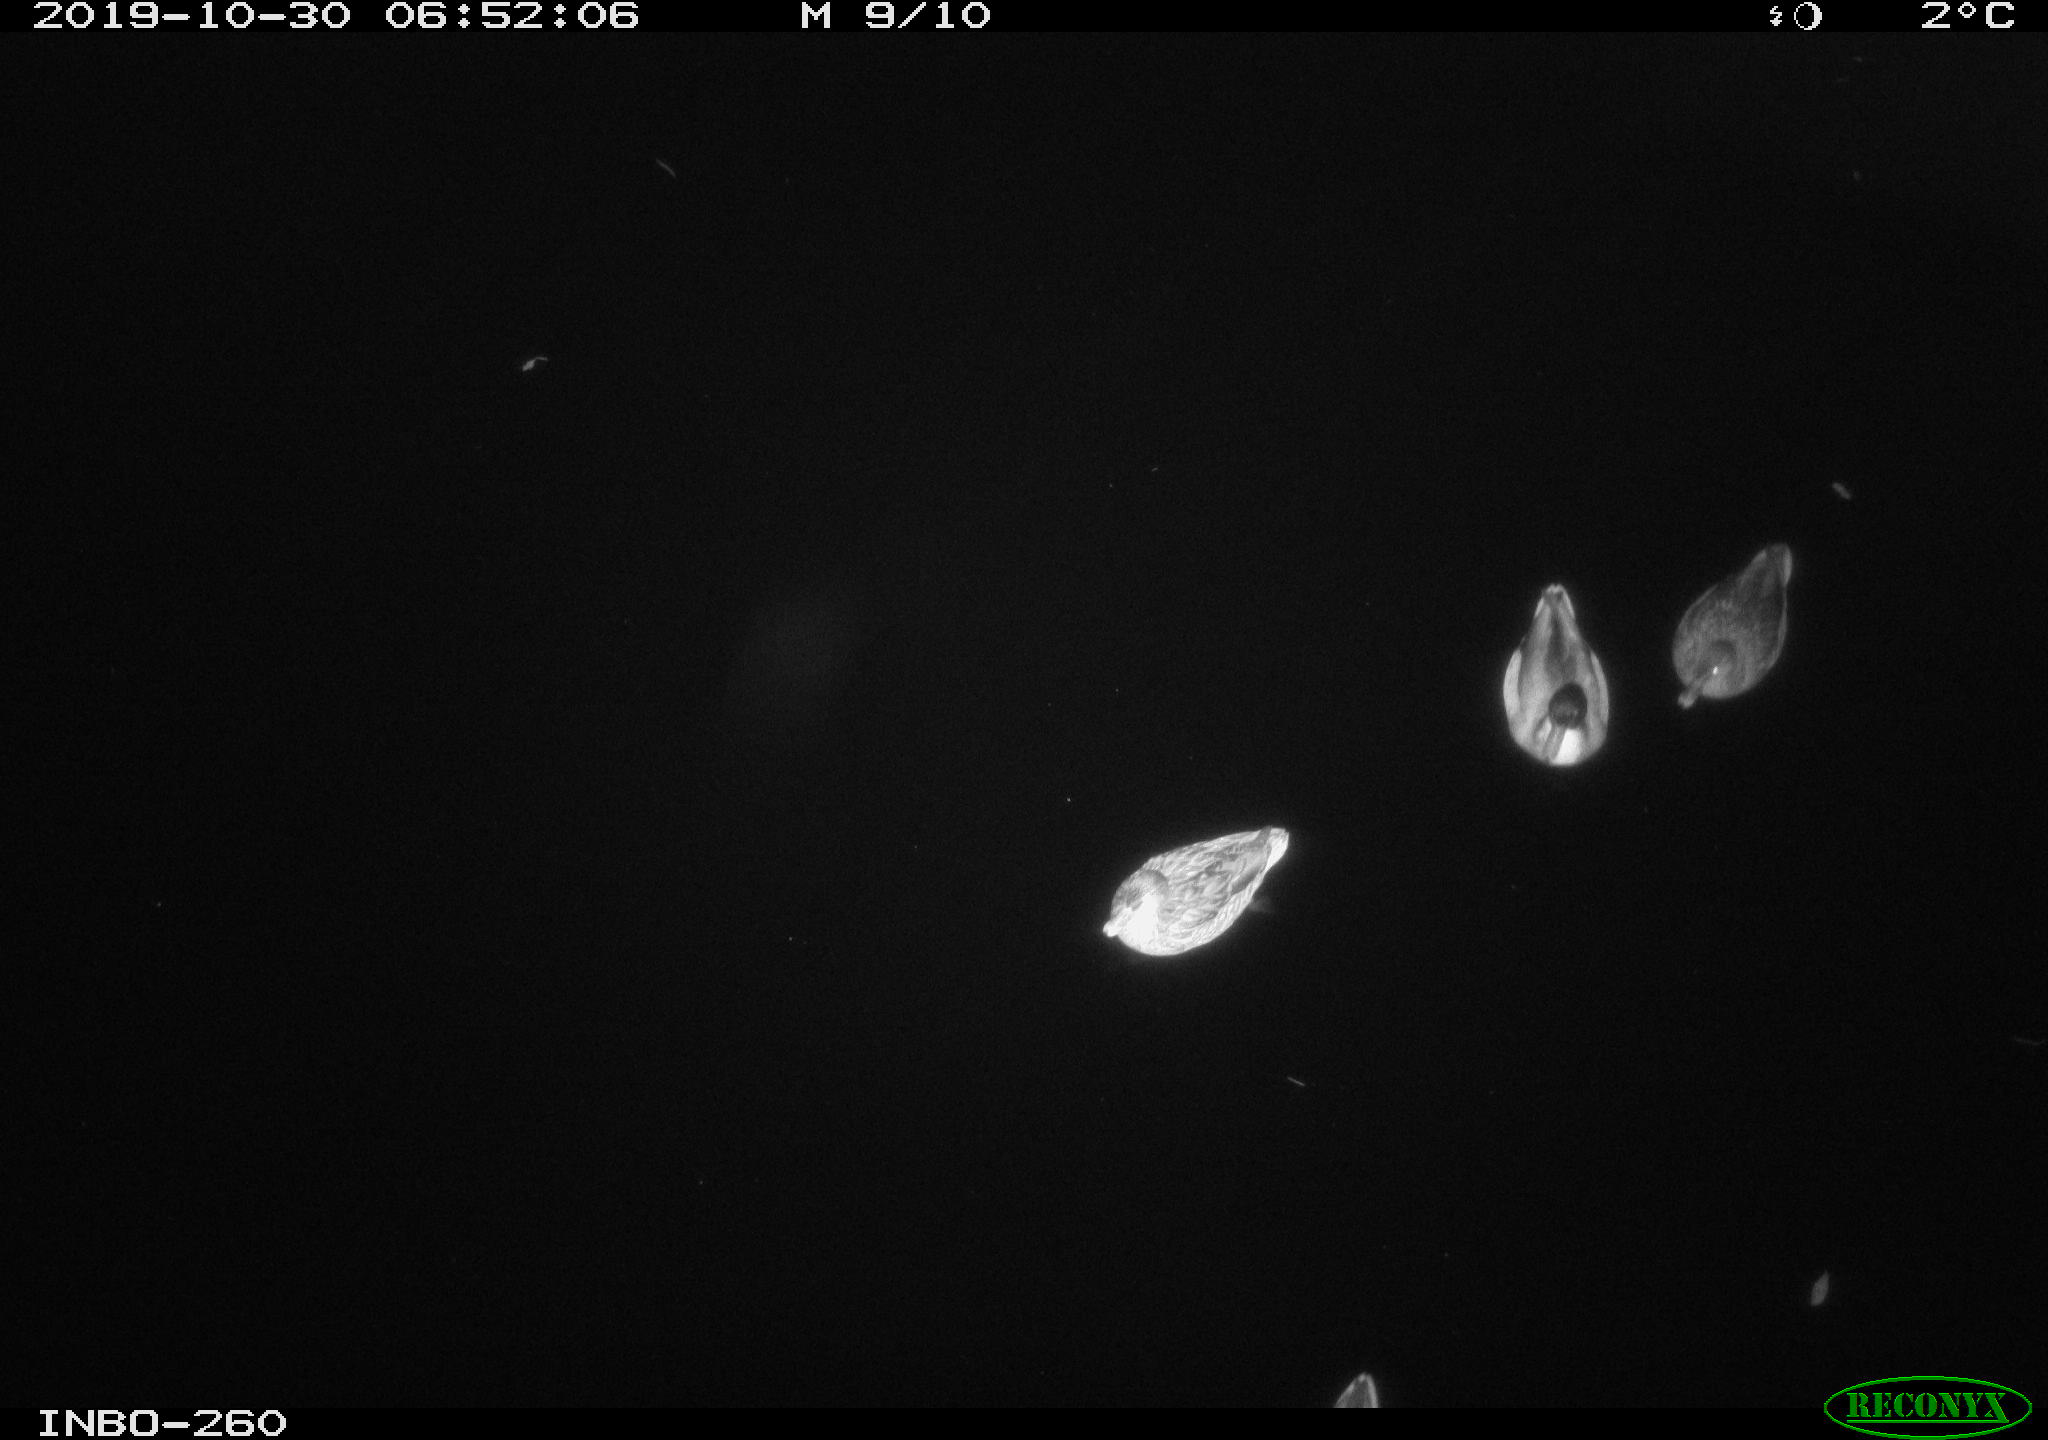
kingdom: Animalia
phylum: Chordata
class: Mammalia
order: Rodentia
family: Muridae
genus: Rattus
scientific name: Rattus norvegicus
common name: Brown rat
